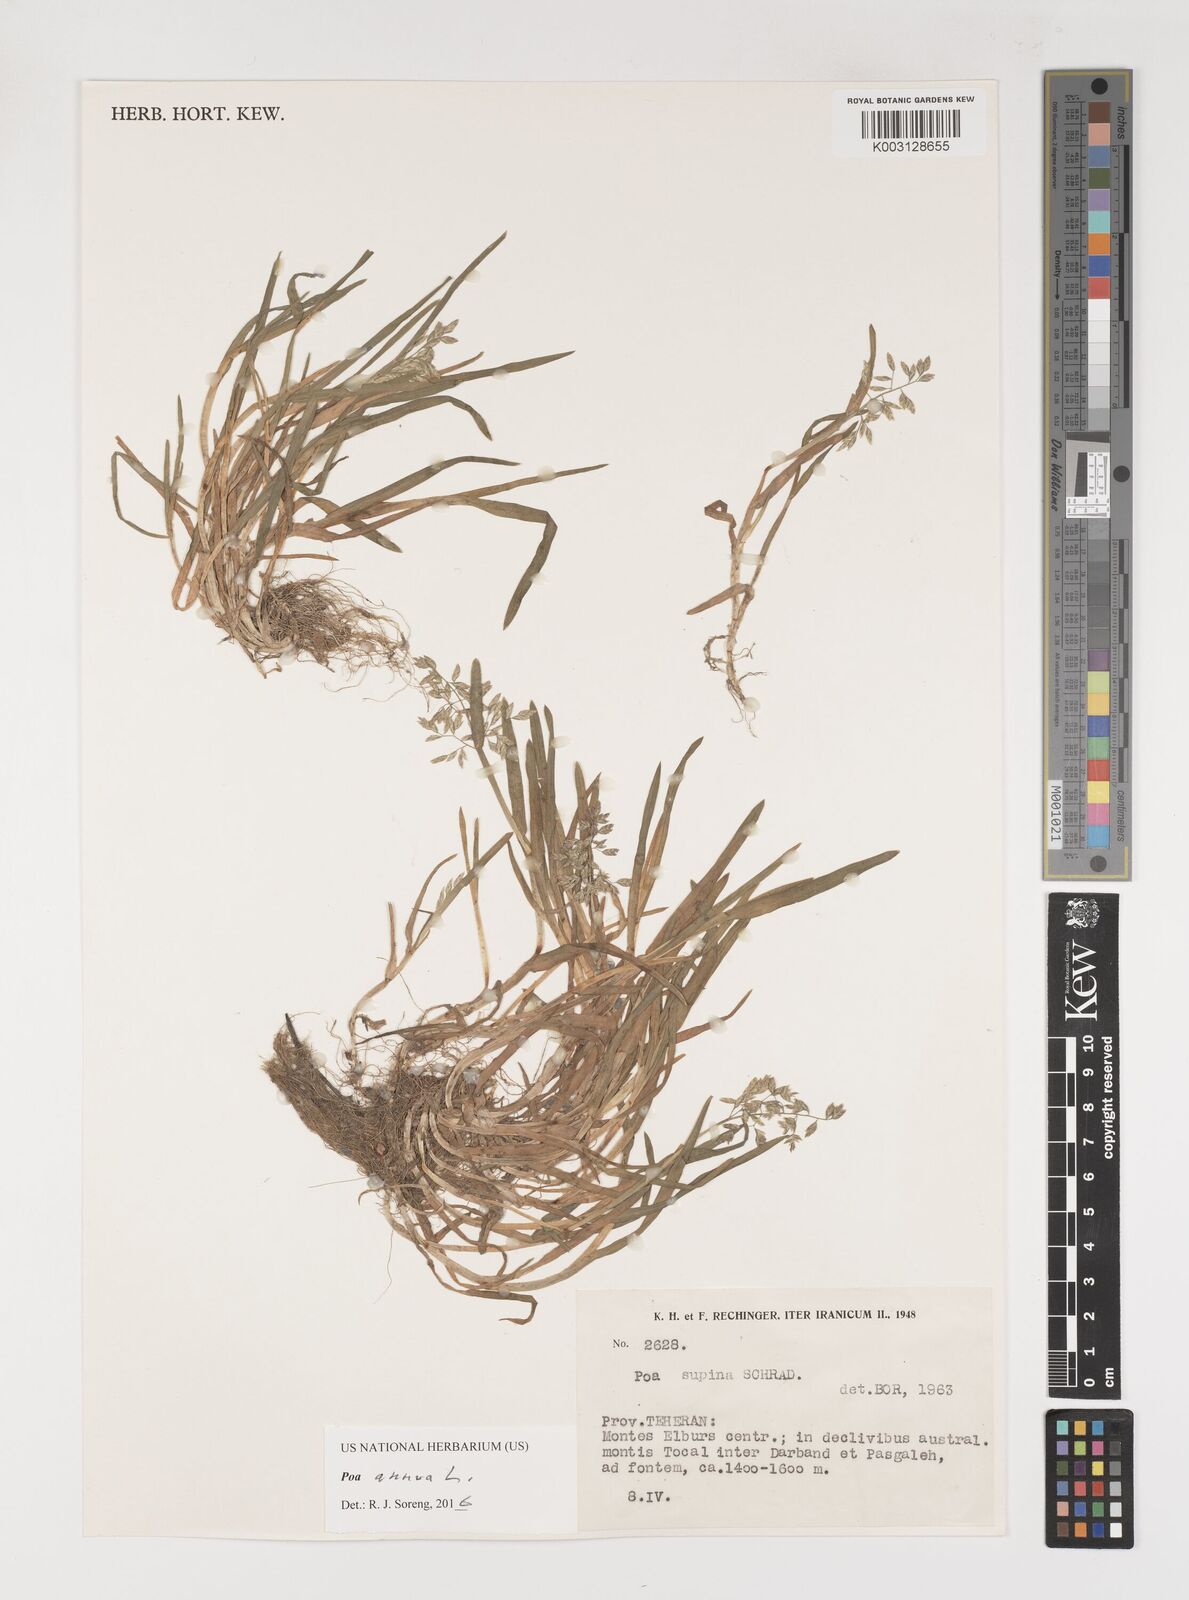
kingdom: Plantae
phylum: Tracheophyta
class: Liliopsida
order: Poales
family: Poaceae
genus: Poa
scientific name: Poa annua
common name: Annual bluegrass
